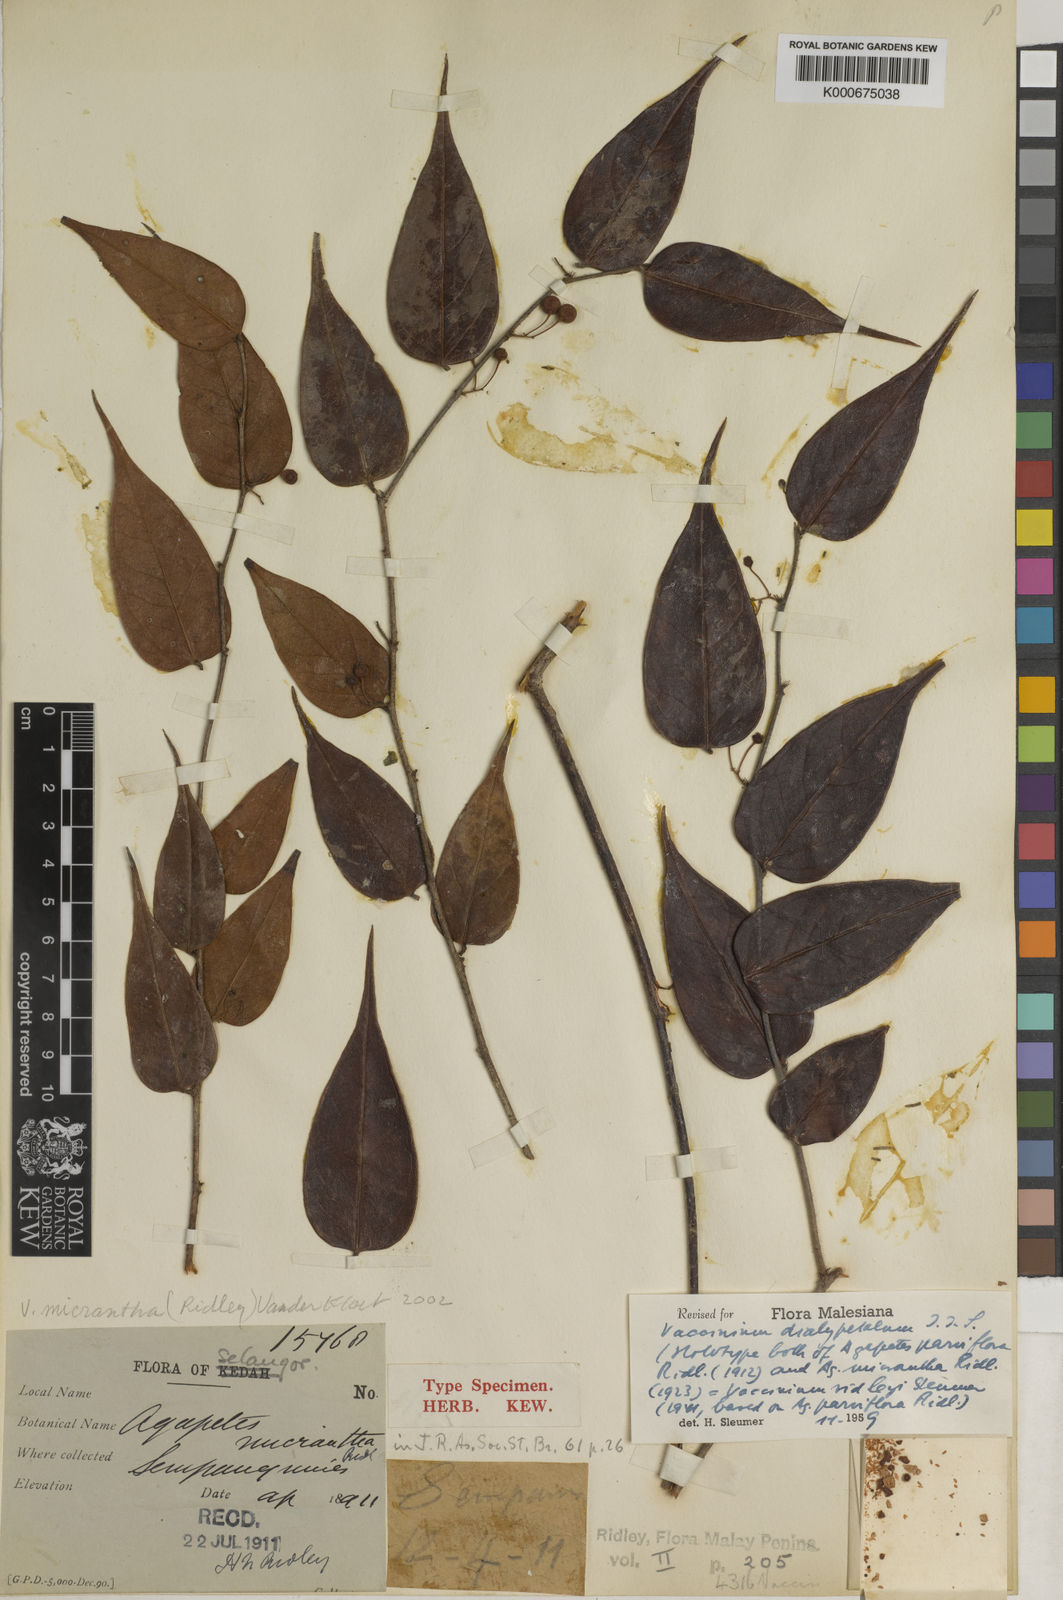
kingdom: Plantae
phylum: Tracheophyta
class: Magnoliopsida
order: Ericales
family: Ericaceae
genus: Vaccinium
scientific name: Vaccinium dialypetalum
